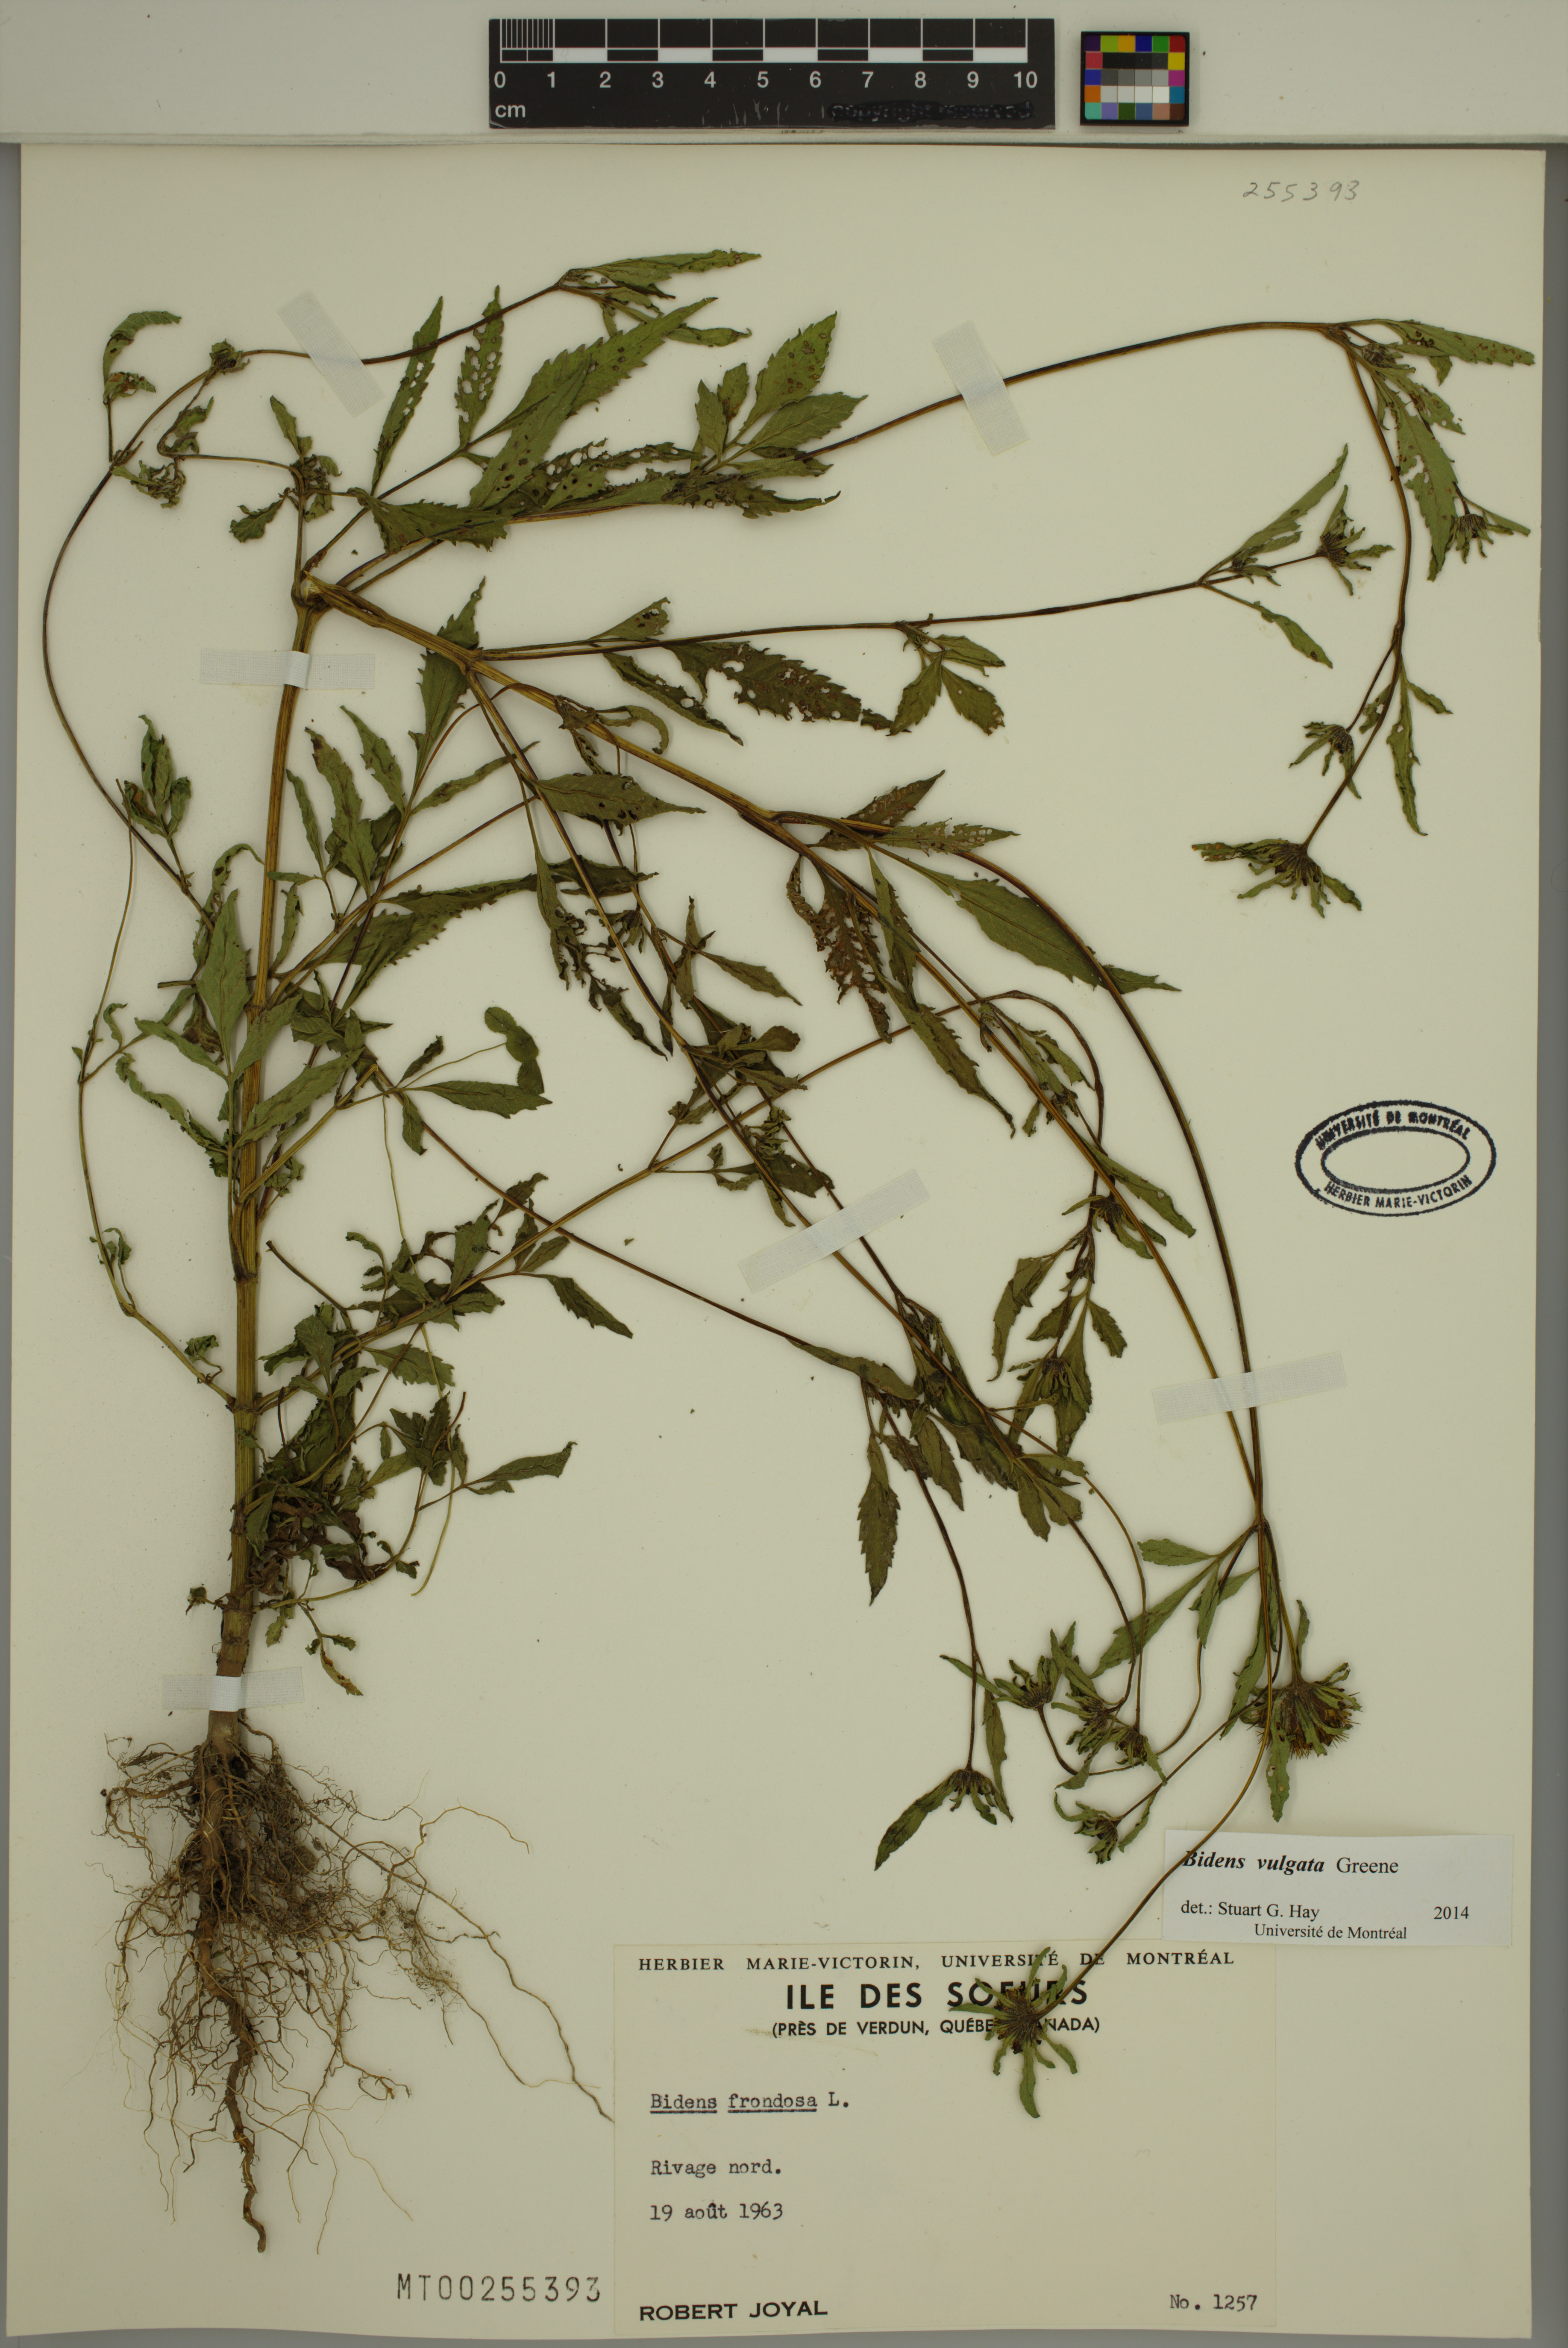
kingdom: Plantae
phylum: Tracheophyta
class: Magnoliopsida
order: Asterales
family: Asteraceae
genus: Bidens
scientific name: Bidens vulgata
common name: Tall beggarticks
